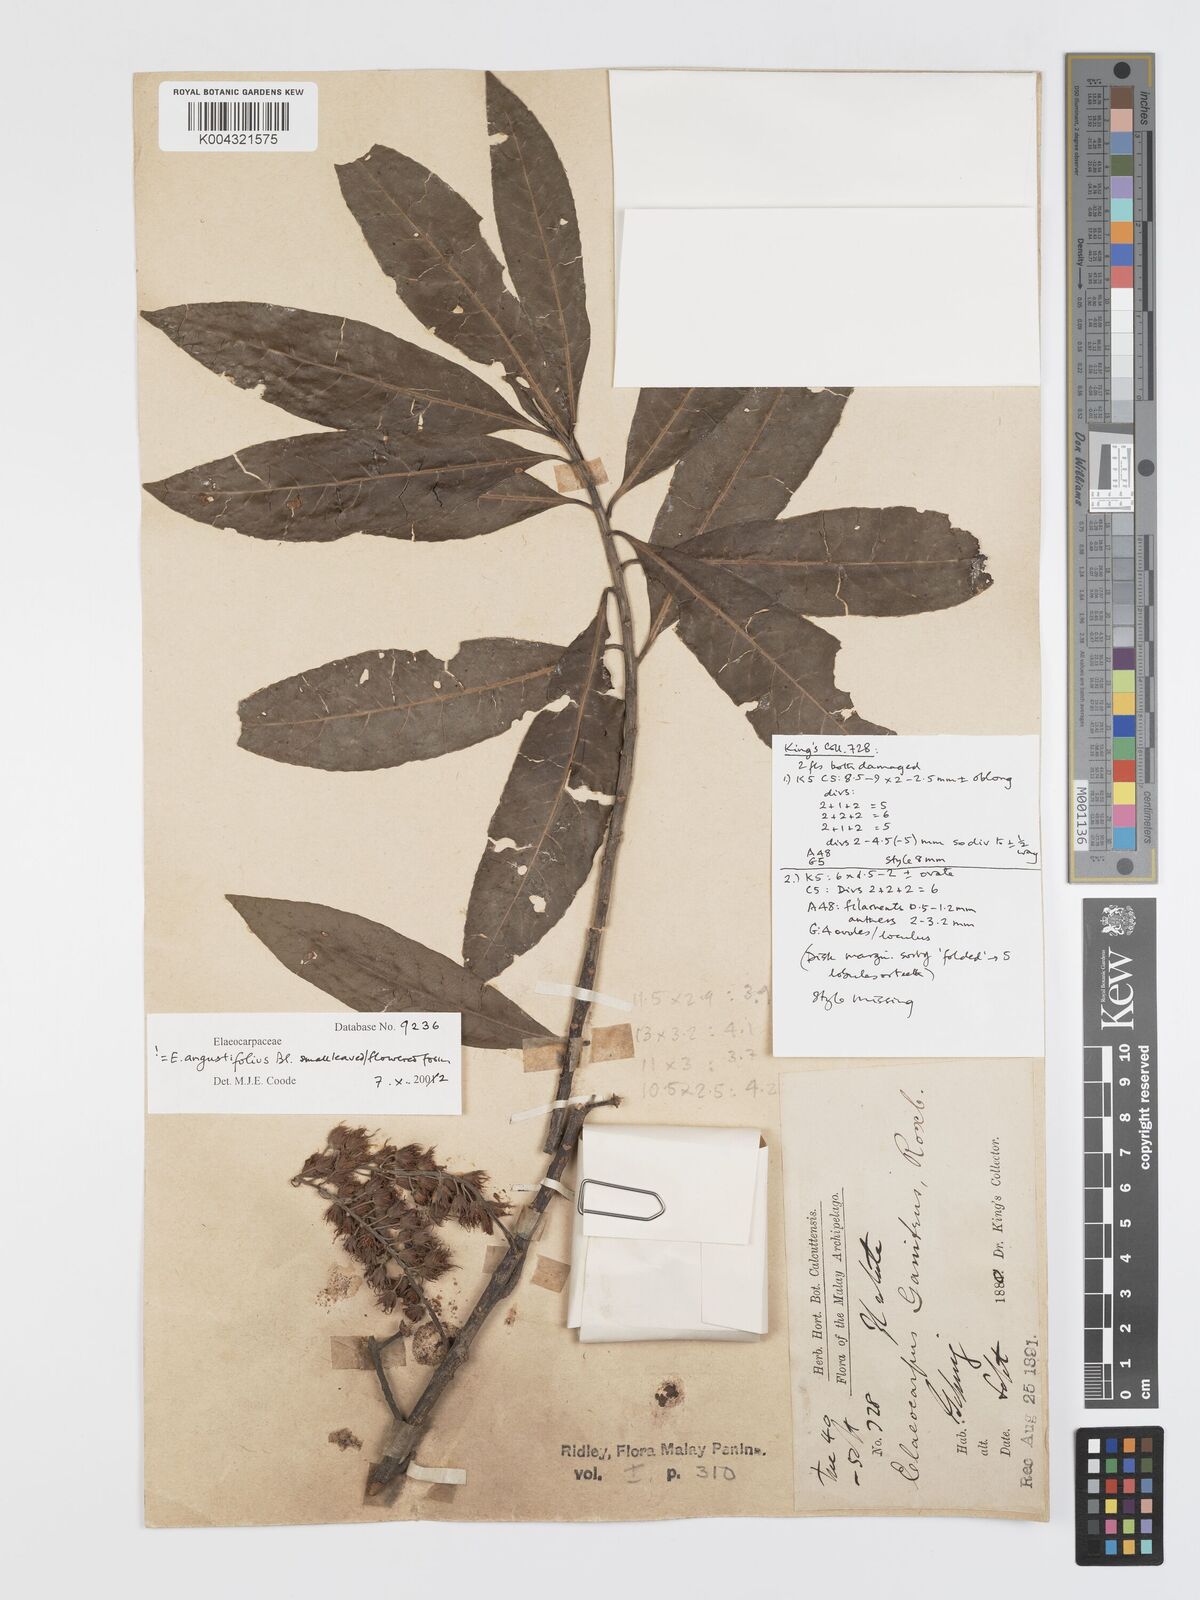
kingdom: Plantae
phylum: Tracheophyta
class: Magnoliopsida
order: Oxalidales
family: Elaeocarpaceae
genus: Elaeocarpus
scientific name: Elaeocarpus sphaericus
